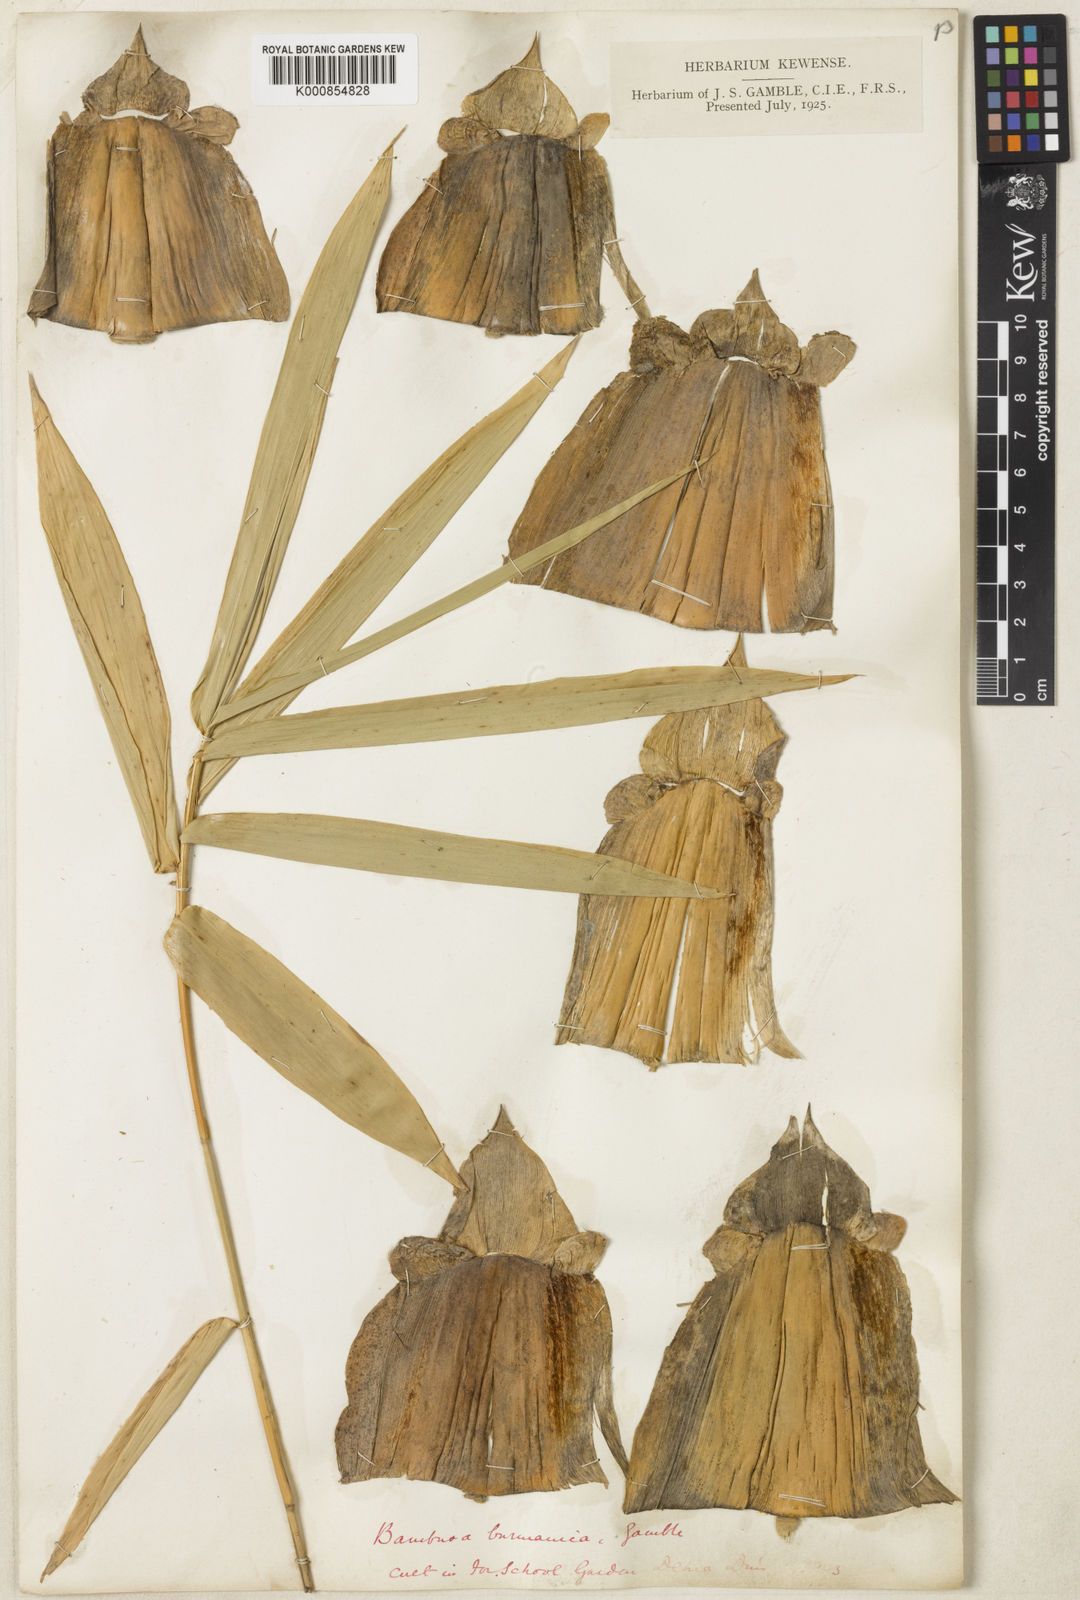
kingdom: Plantae
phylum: Tracheophyta
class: Liliopsida
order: Poales
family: Poaceae
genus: Bambusa
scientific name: Bambusa burmanica
